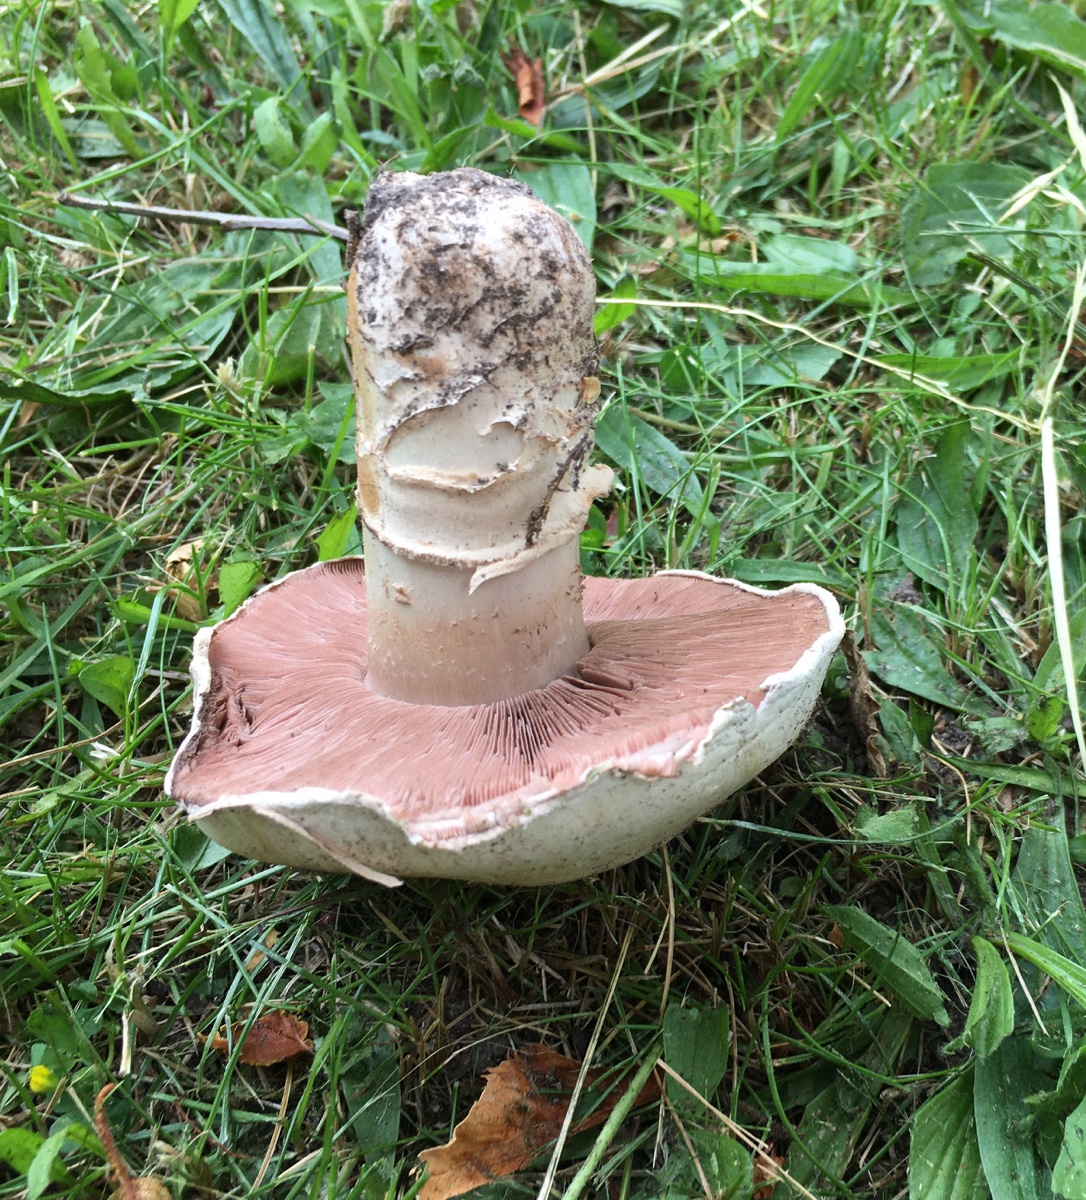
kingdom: Fungi
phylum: Basidiomycota
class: Agaricomycetes
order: Agaricales
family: Agaricaceae
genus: Agaricus
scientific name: Agaricus bitorquis
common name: vej-champignon
